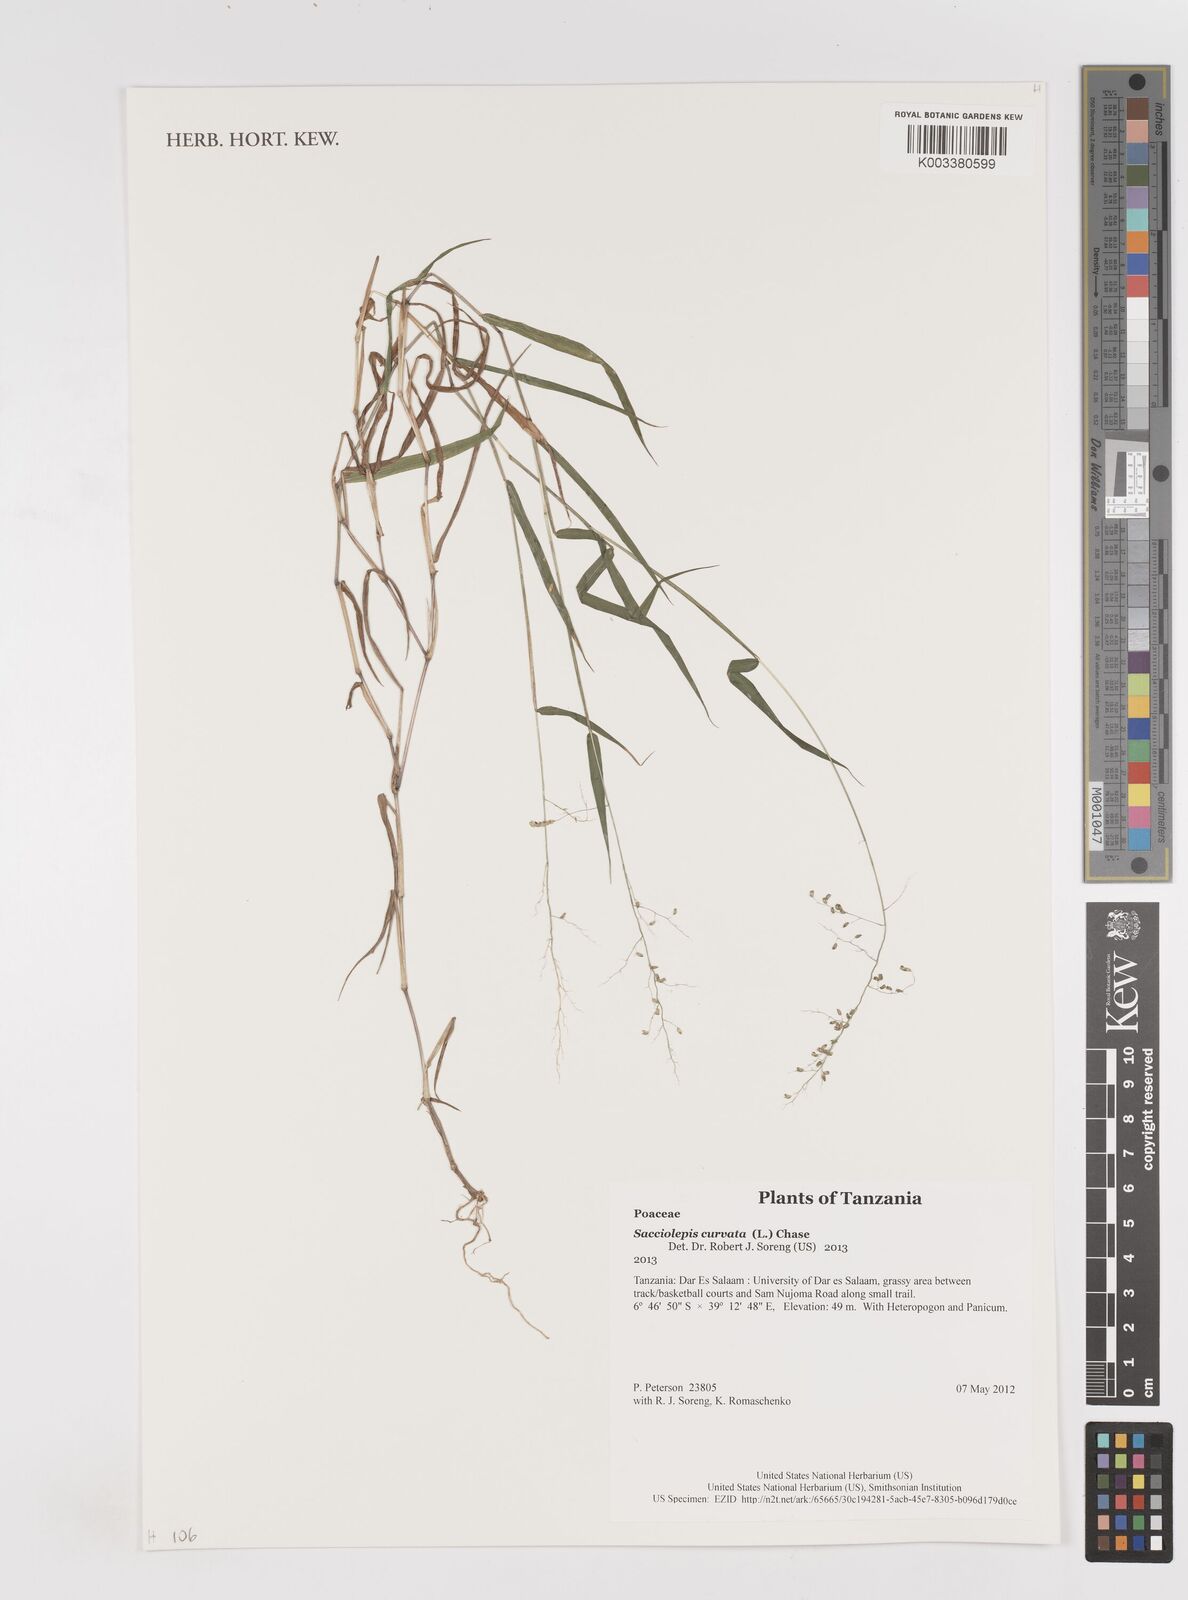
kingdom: Plantae
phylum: Tracheophyta
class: Liliopsida
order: Poales
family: Poaceae
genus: Sacciolepis
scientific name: Sacciolepis curvata
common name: Forest hood grass
